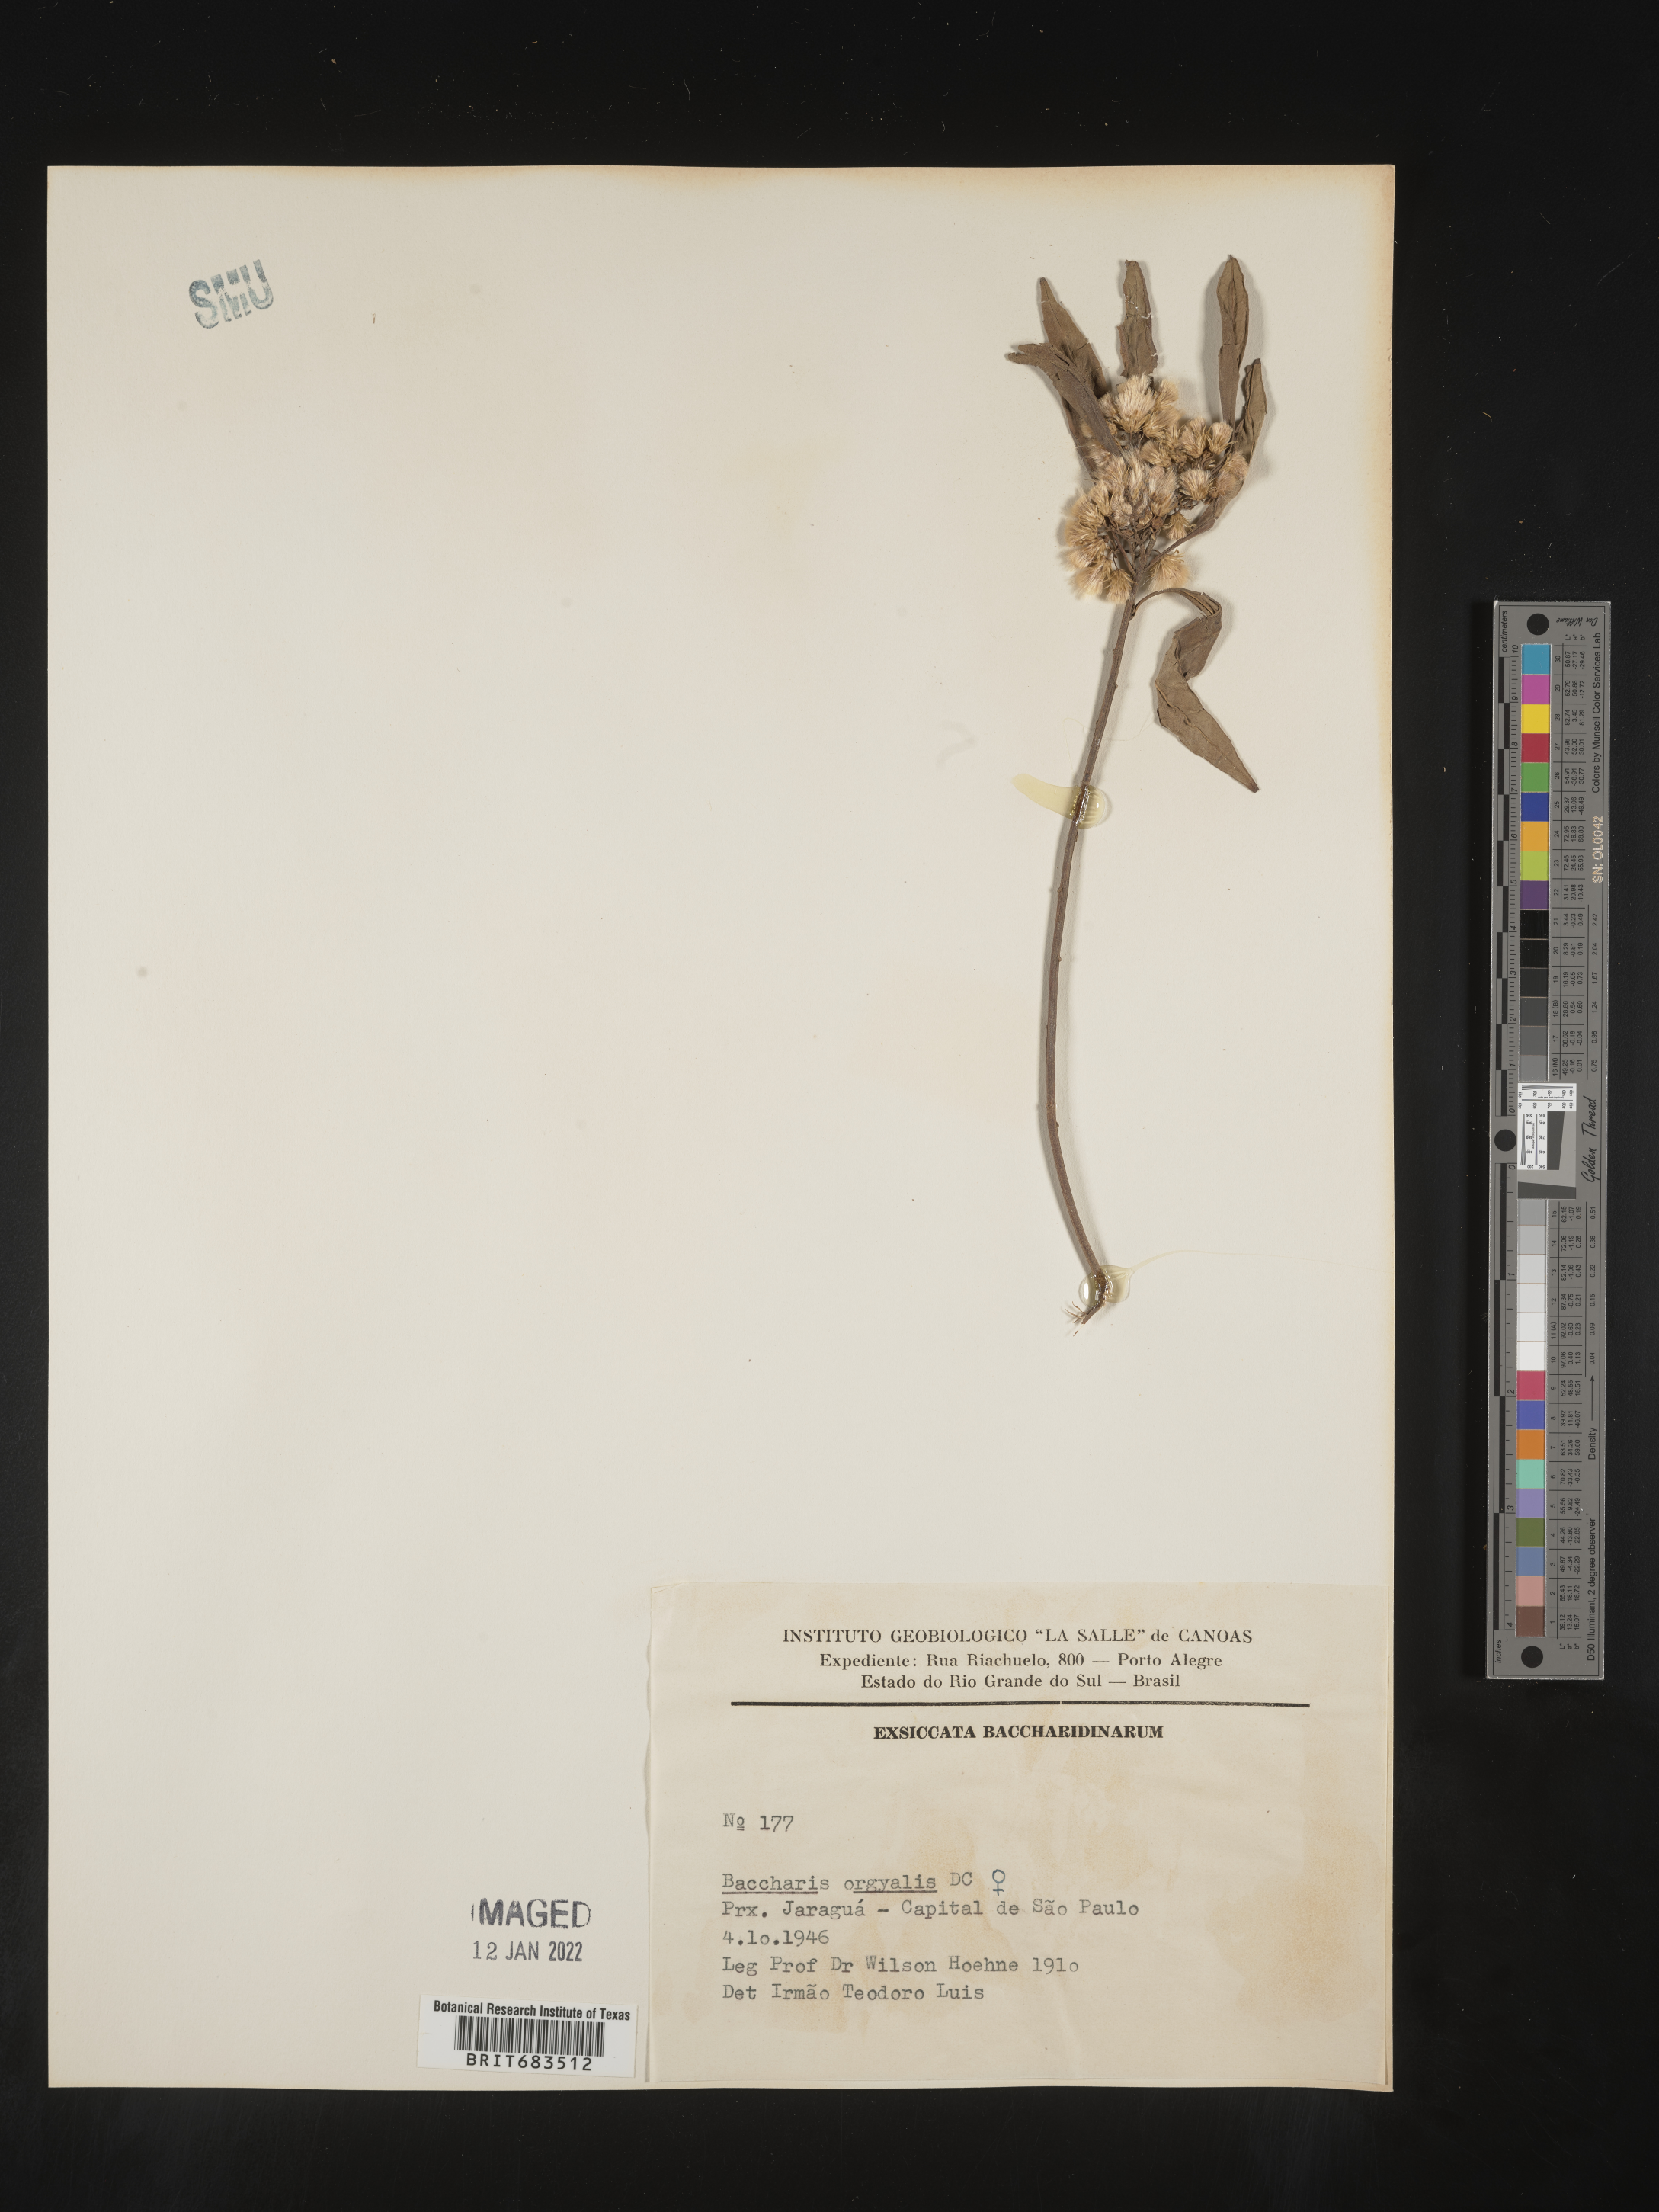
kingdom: Plantae
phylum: Tracheophyta
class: Magnoliopsida
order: Asterales
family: Asteraceae
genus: Baccharis
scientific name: Baccharis
